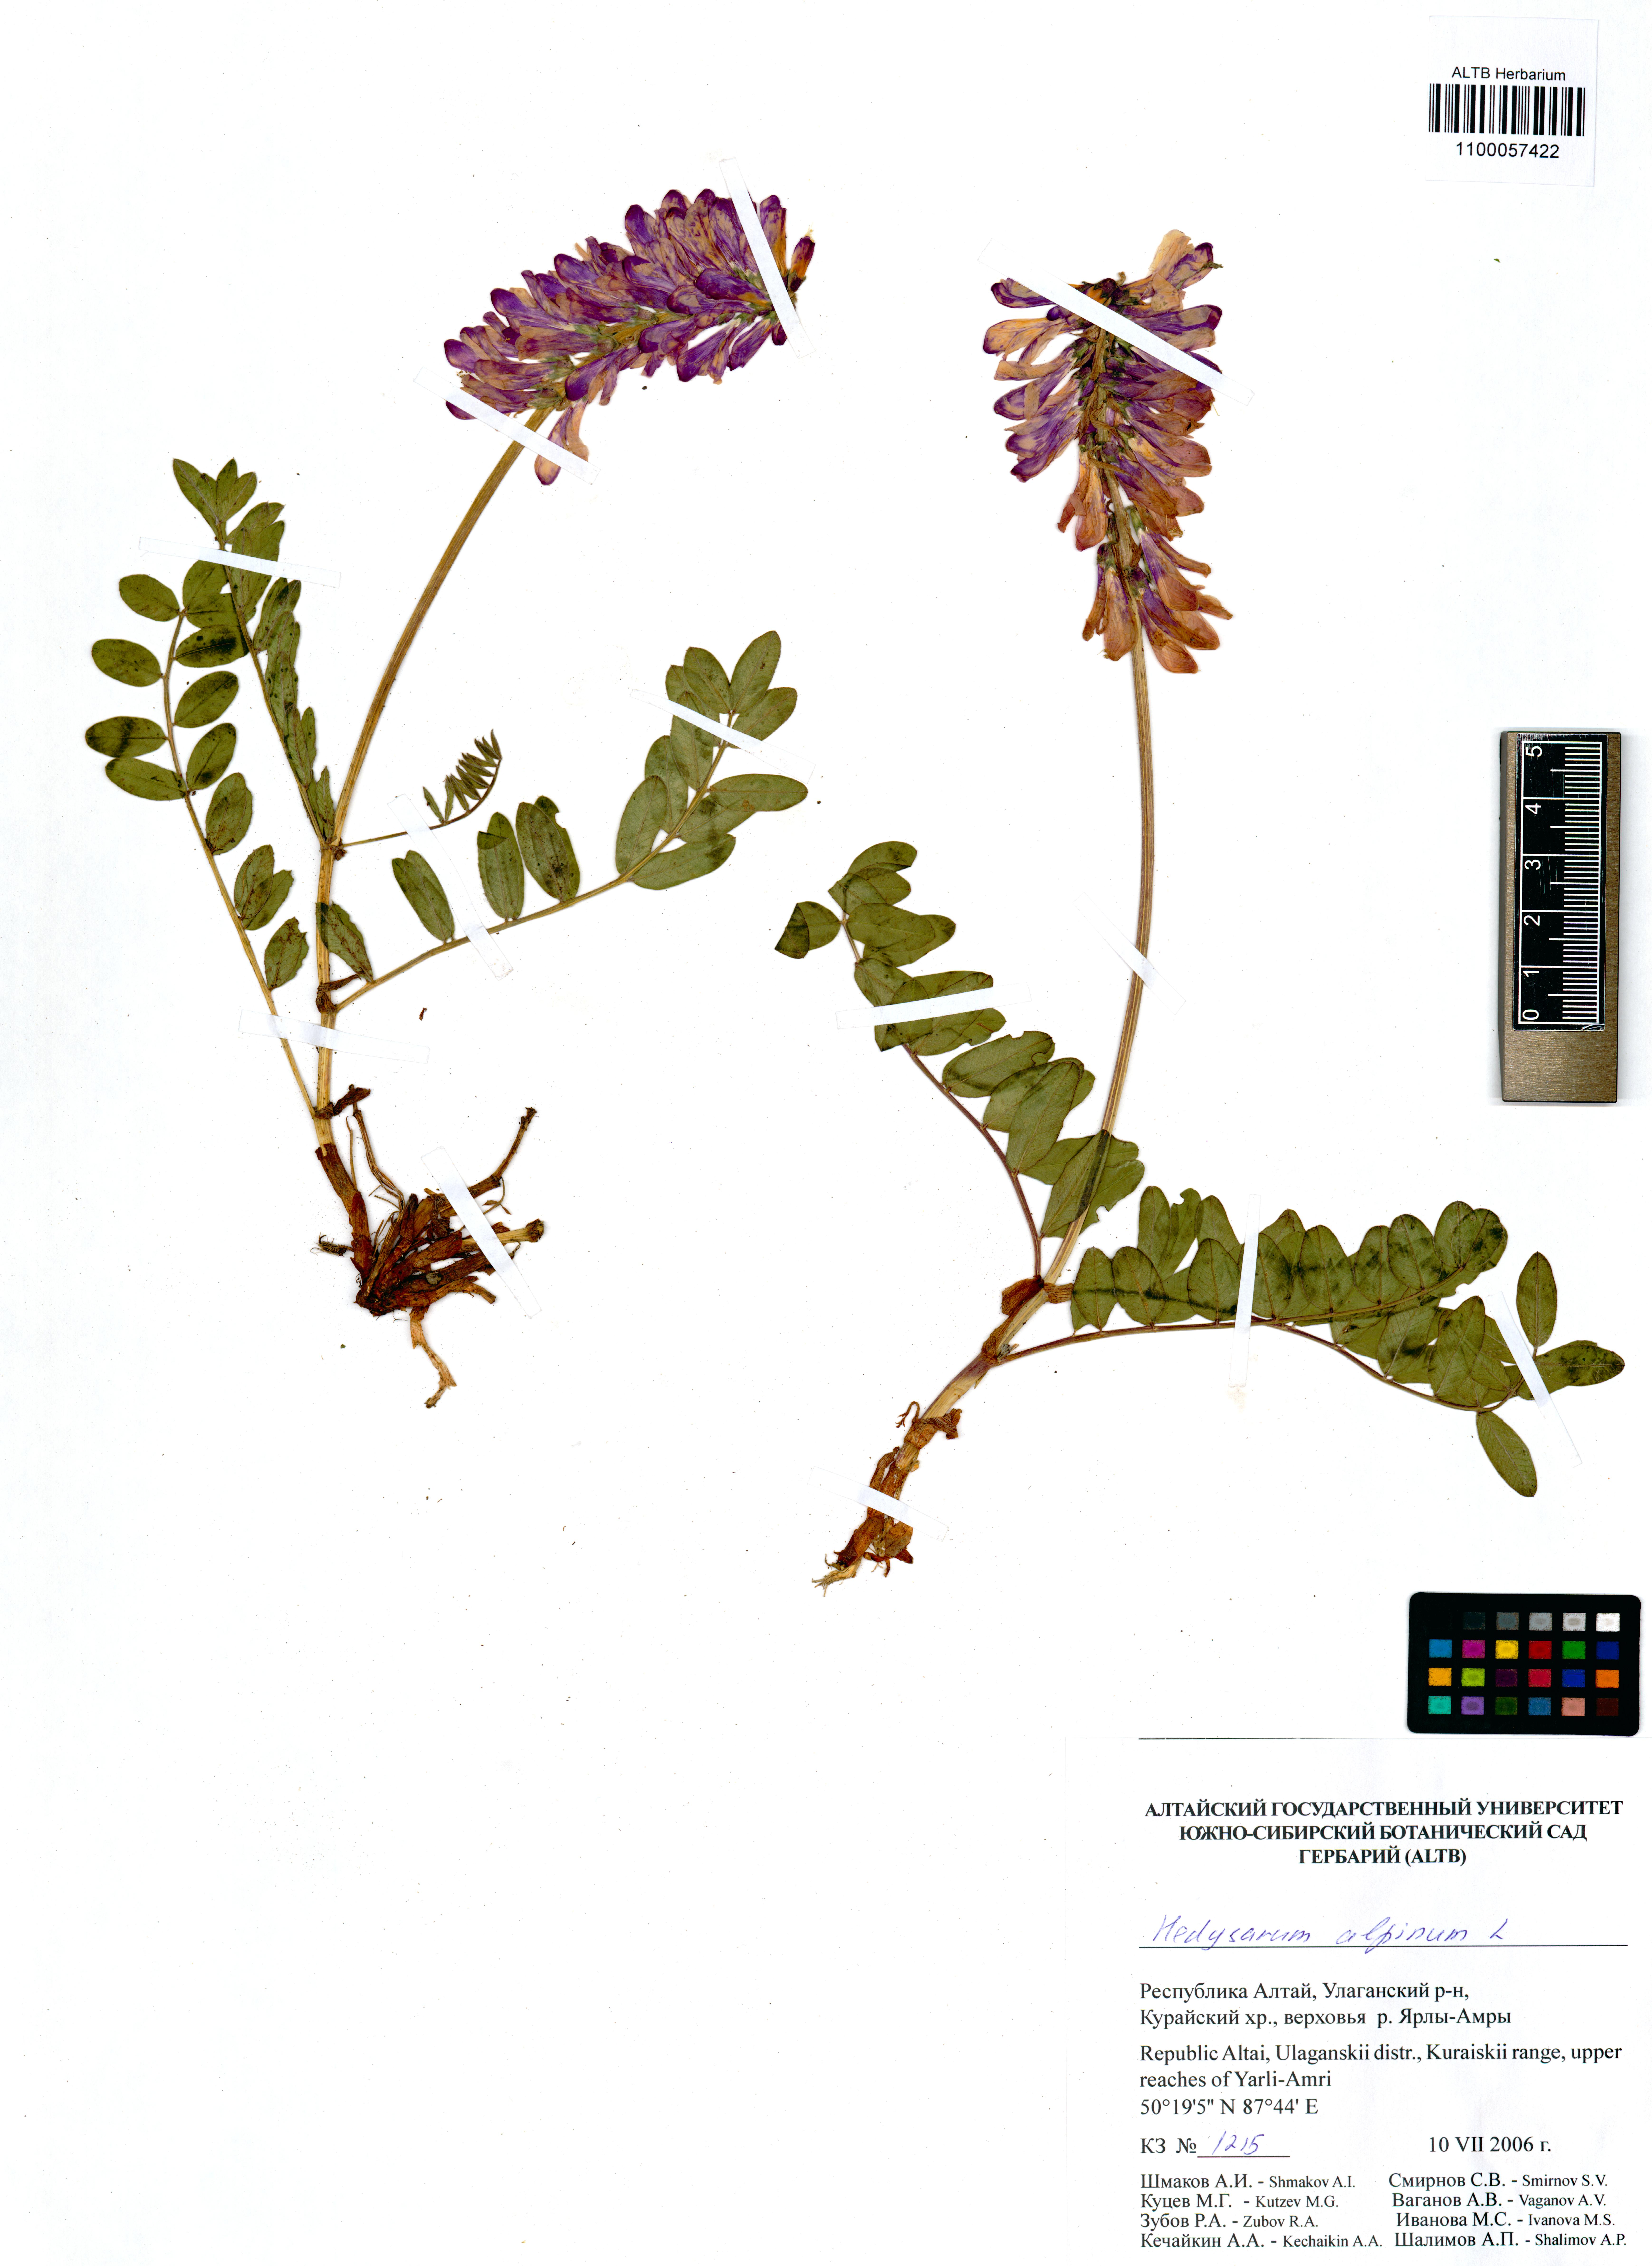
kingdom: Plantae
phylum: Tracheophyta
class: Magnoliopsida
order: Fabales
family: Fabaceae
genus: Hedysarum
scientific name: Hedysarum alpinum
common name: Alpine sweet-vetch
